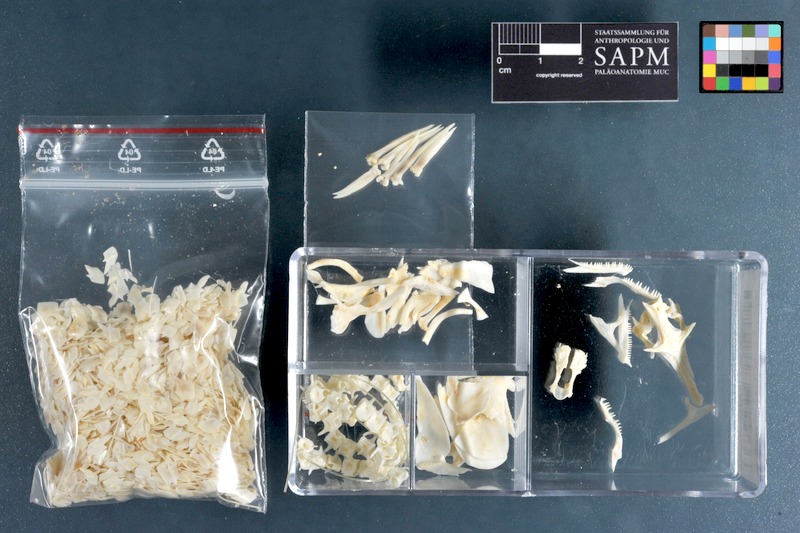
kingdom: Animalia
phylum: Chordata
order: Polypteriformes
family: Polypteridae
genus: Polypterus
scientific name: Polypterus retropinnis
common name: West african bichir
